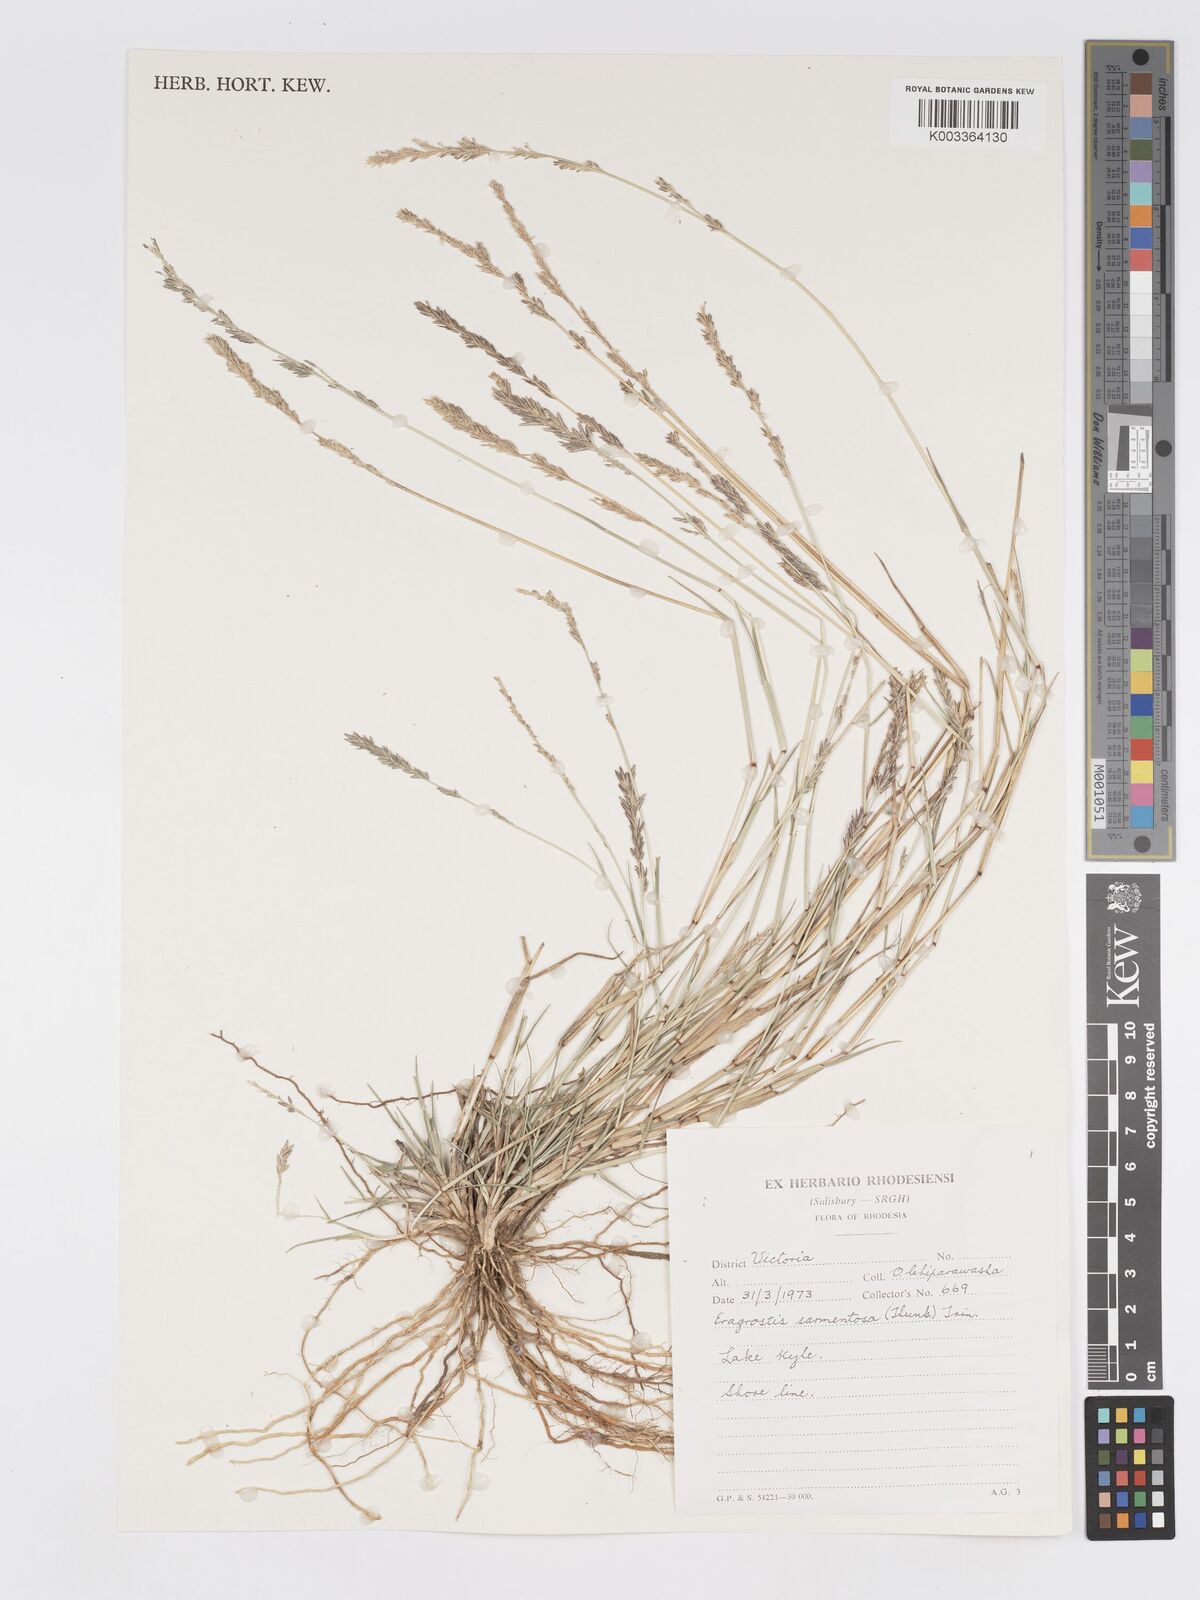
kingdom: Plantae
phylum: Tracheophyta
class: Liliopsida
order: Poales
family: Poaceae
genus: Eragrostis
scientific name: Eragrostis sarmentosa
